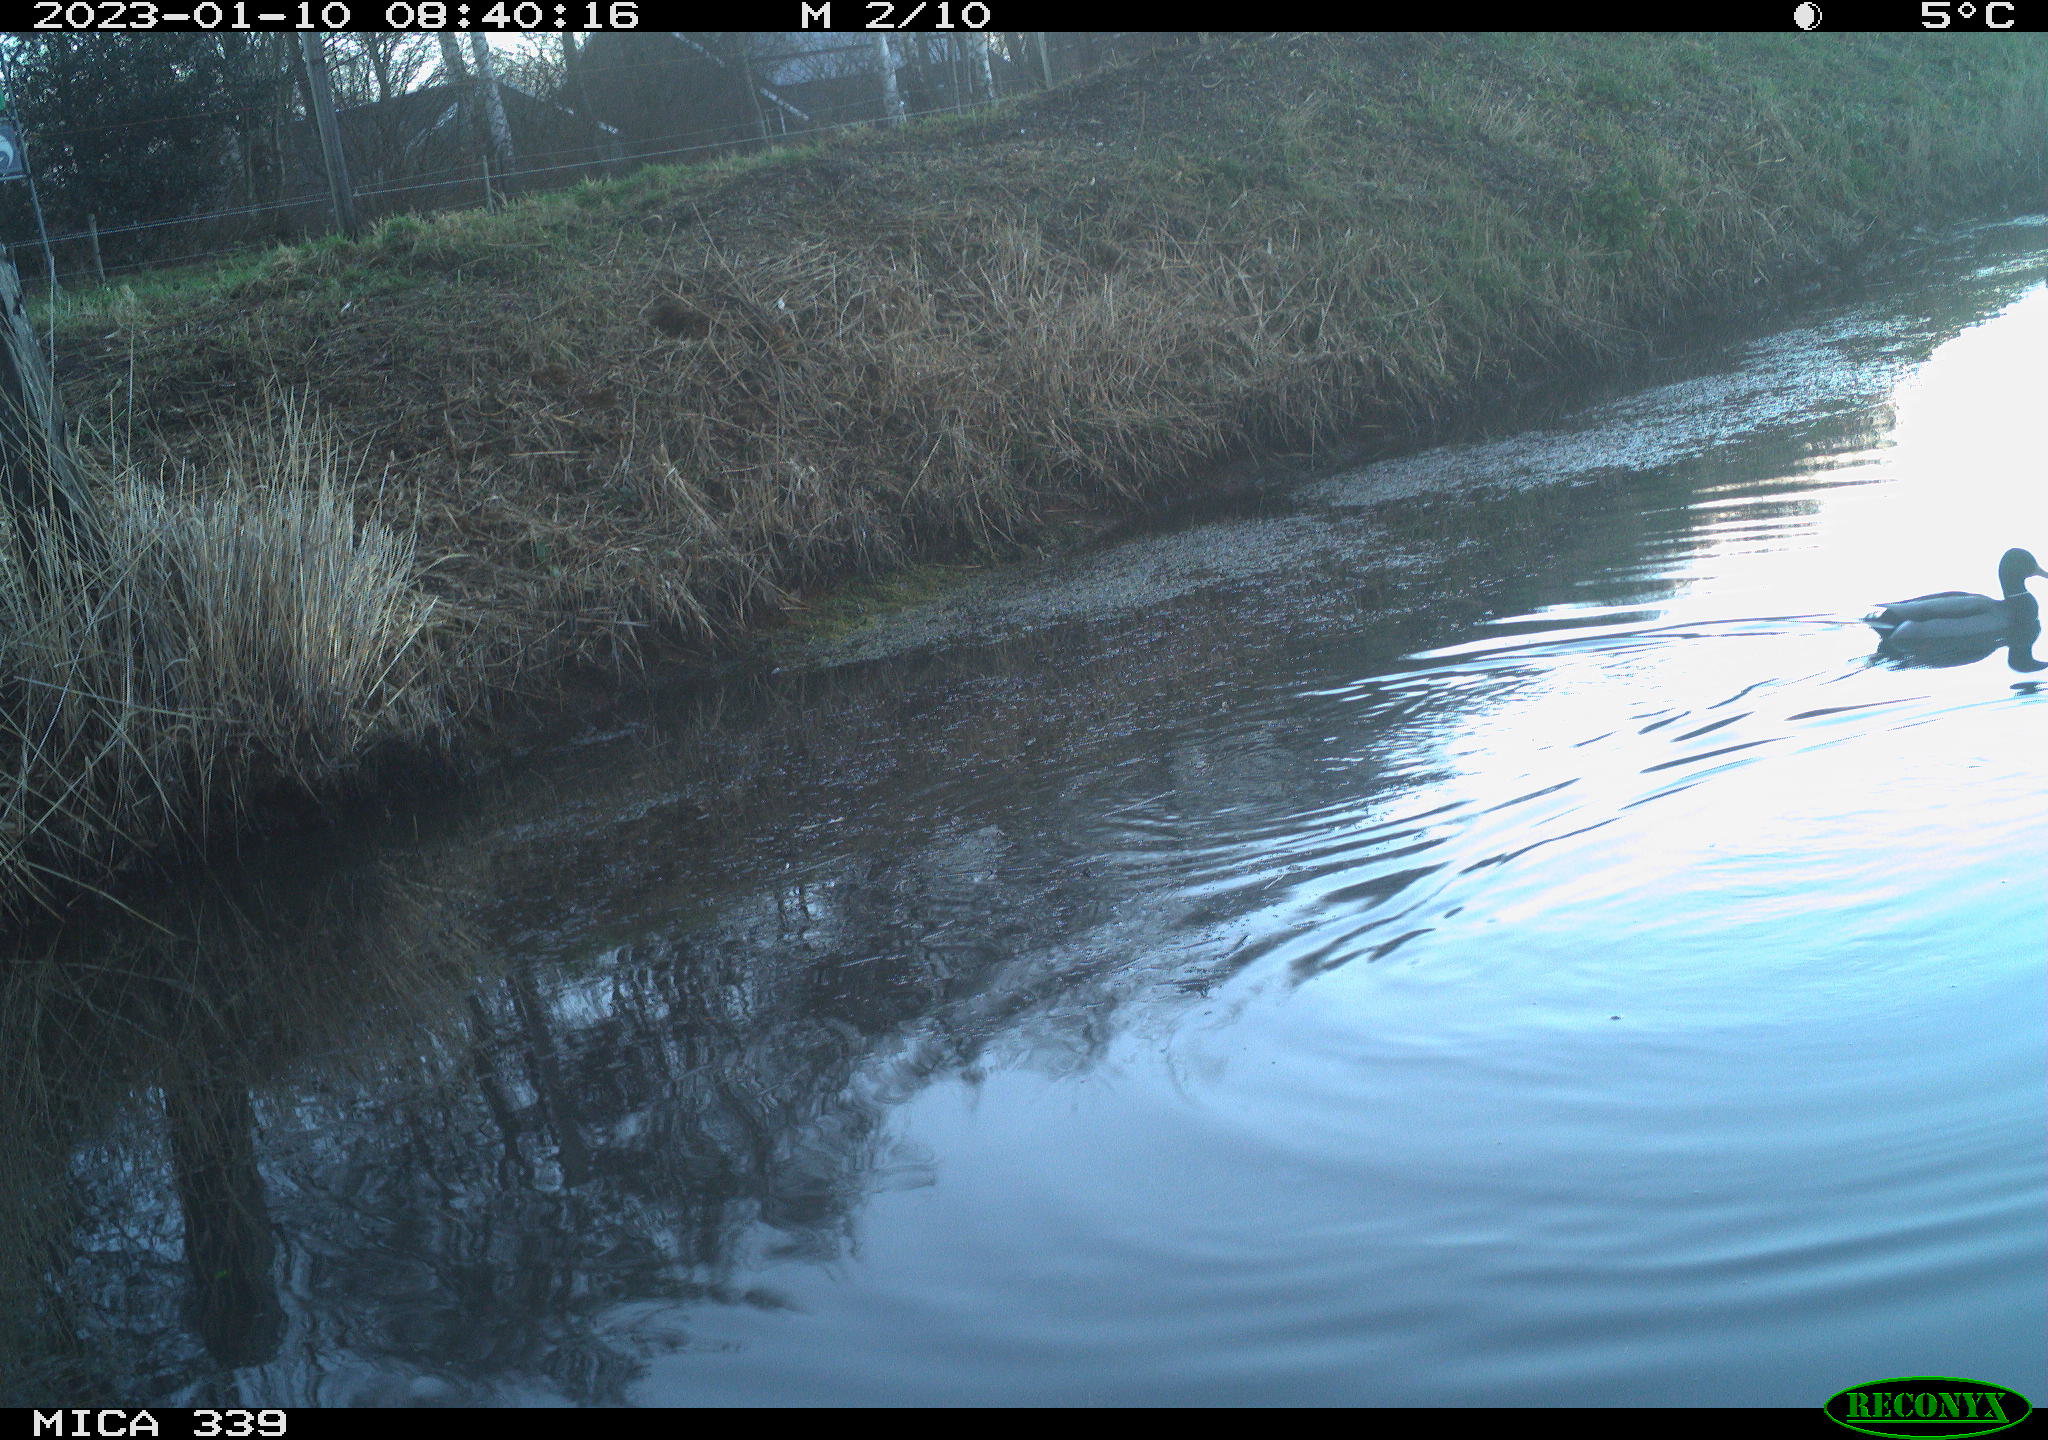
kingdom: Animalia
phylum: Chordata
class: Aves
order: Anseriformes
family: Anatidae
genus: Anas
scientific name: Anas
